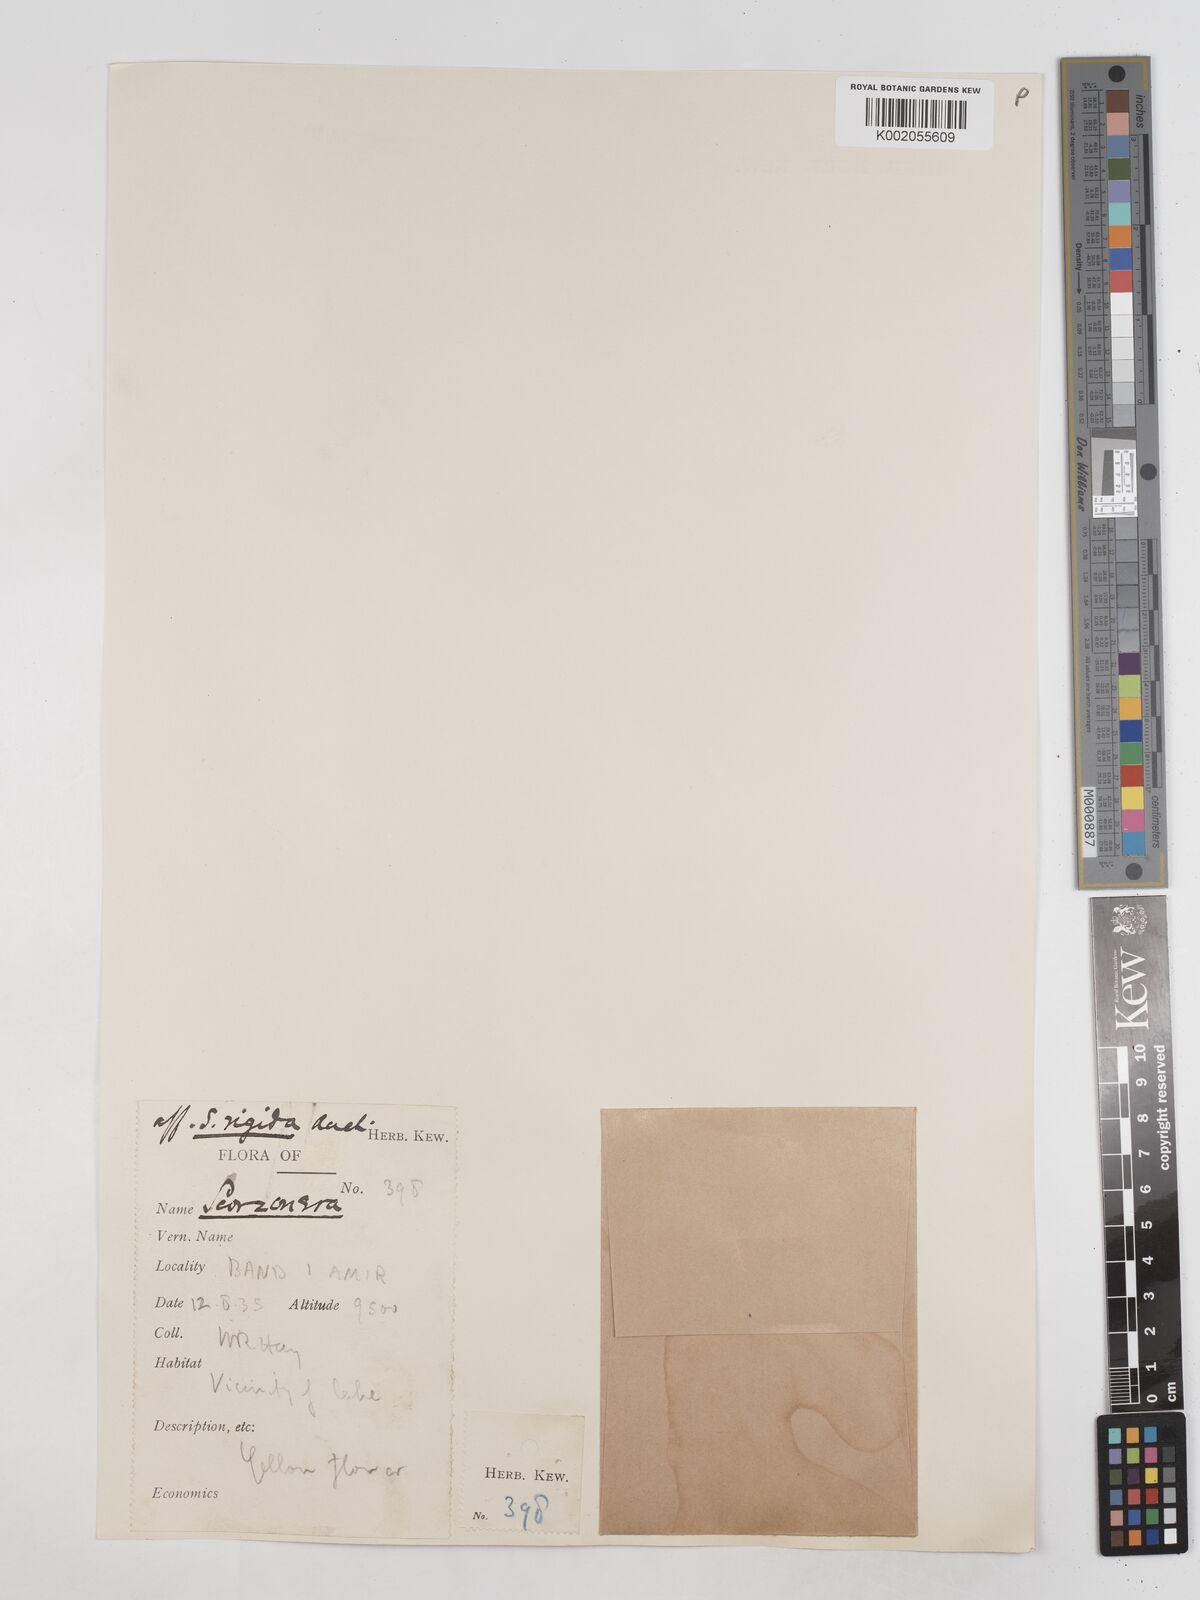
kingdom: Plantae
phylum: Tracheophyta
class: Magnoliopsida
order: Asterales
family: Asteraceae
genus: Goekyighitia
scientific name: Goekyighitia rigida
